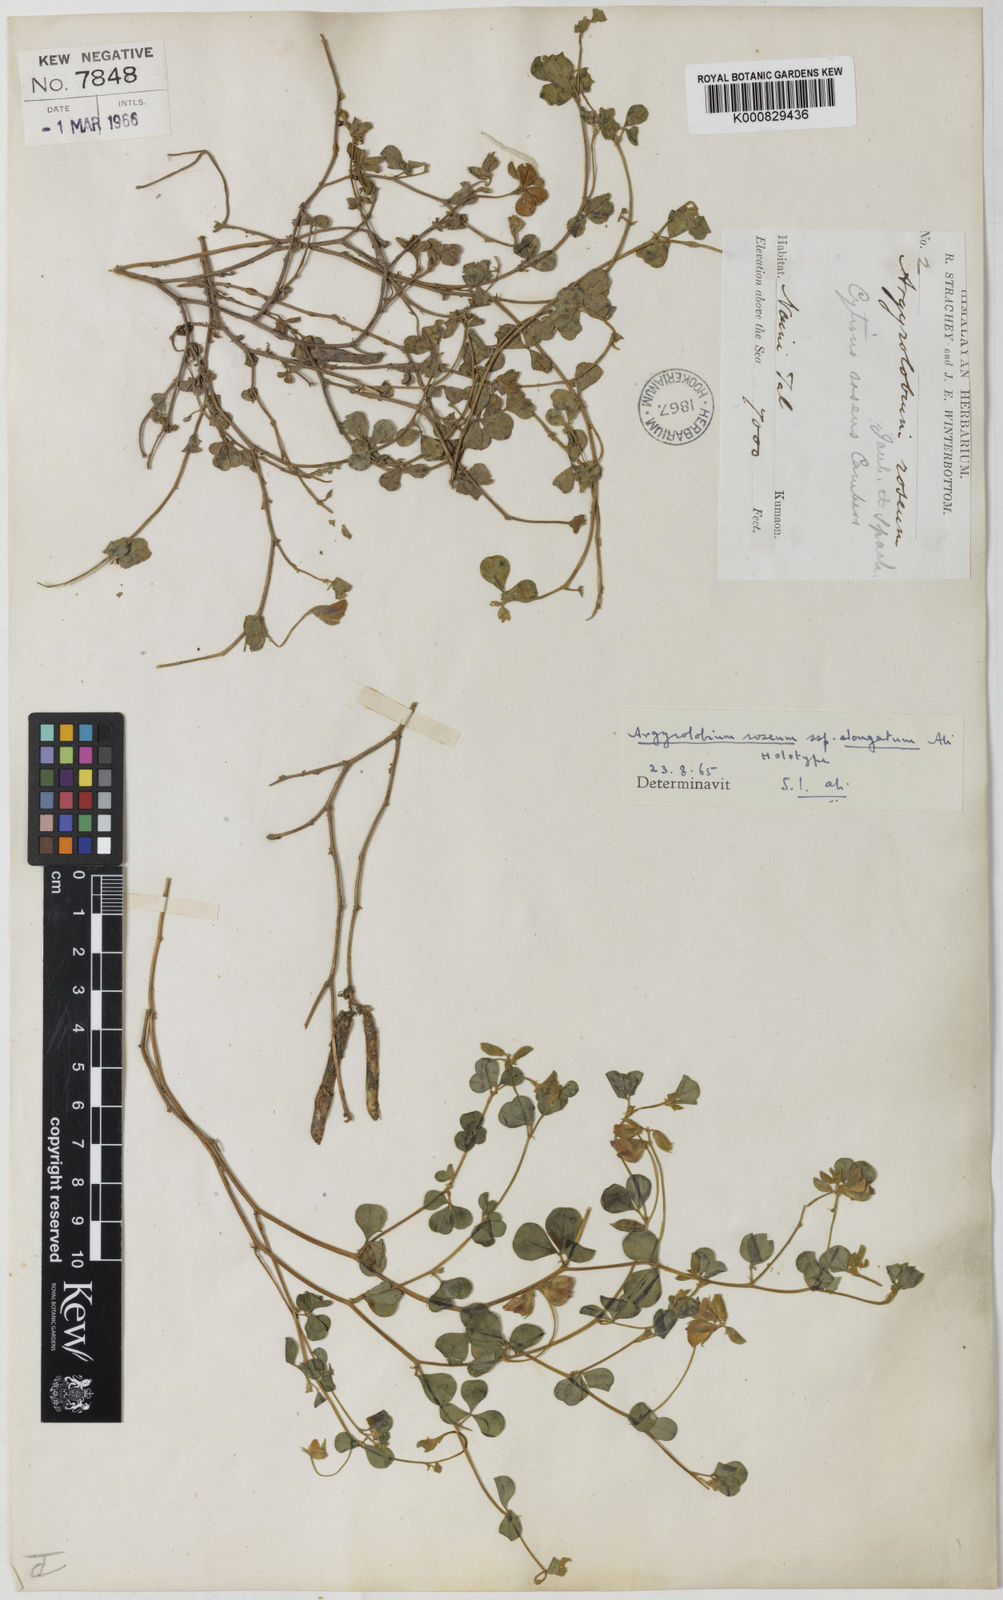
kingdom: Plantae
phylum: Tracheophyta
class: Magnoliopsida
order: Fabales
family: Fabaceae
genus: Argyrolobium
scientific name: Argyrolobium uniflorum
